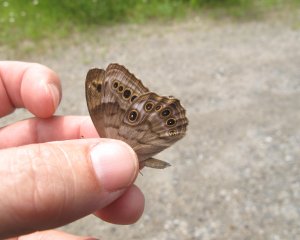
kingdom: Animalia
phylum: Arthropoda
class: Insecta
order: Lepidoptera
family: Nymphalidae
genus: Lethe
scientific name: Lethe anthedon
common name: Northern Pearly-Eye
